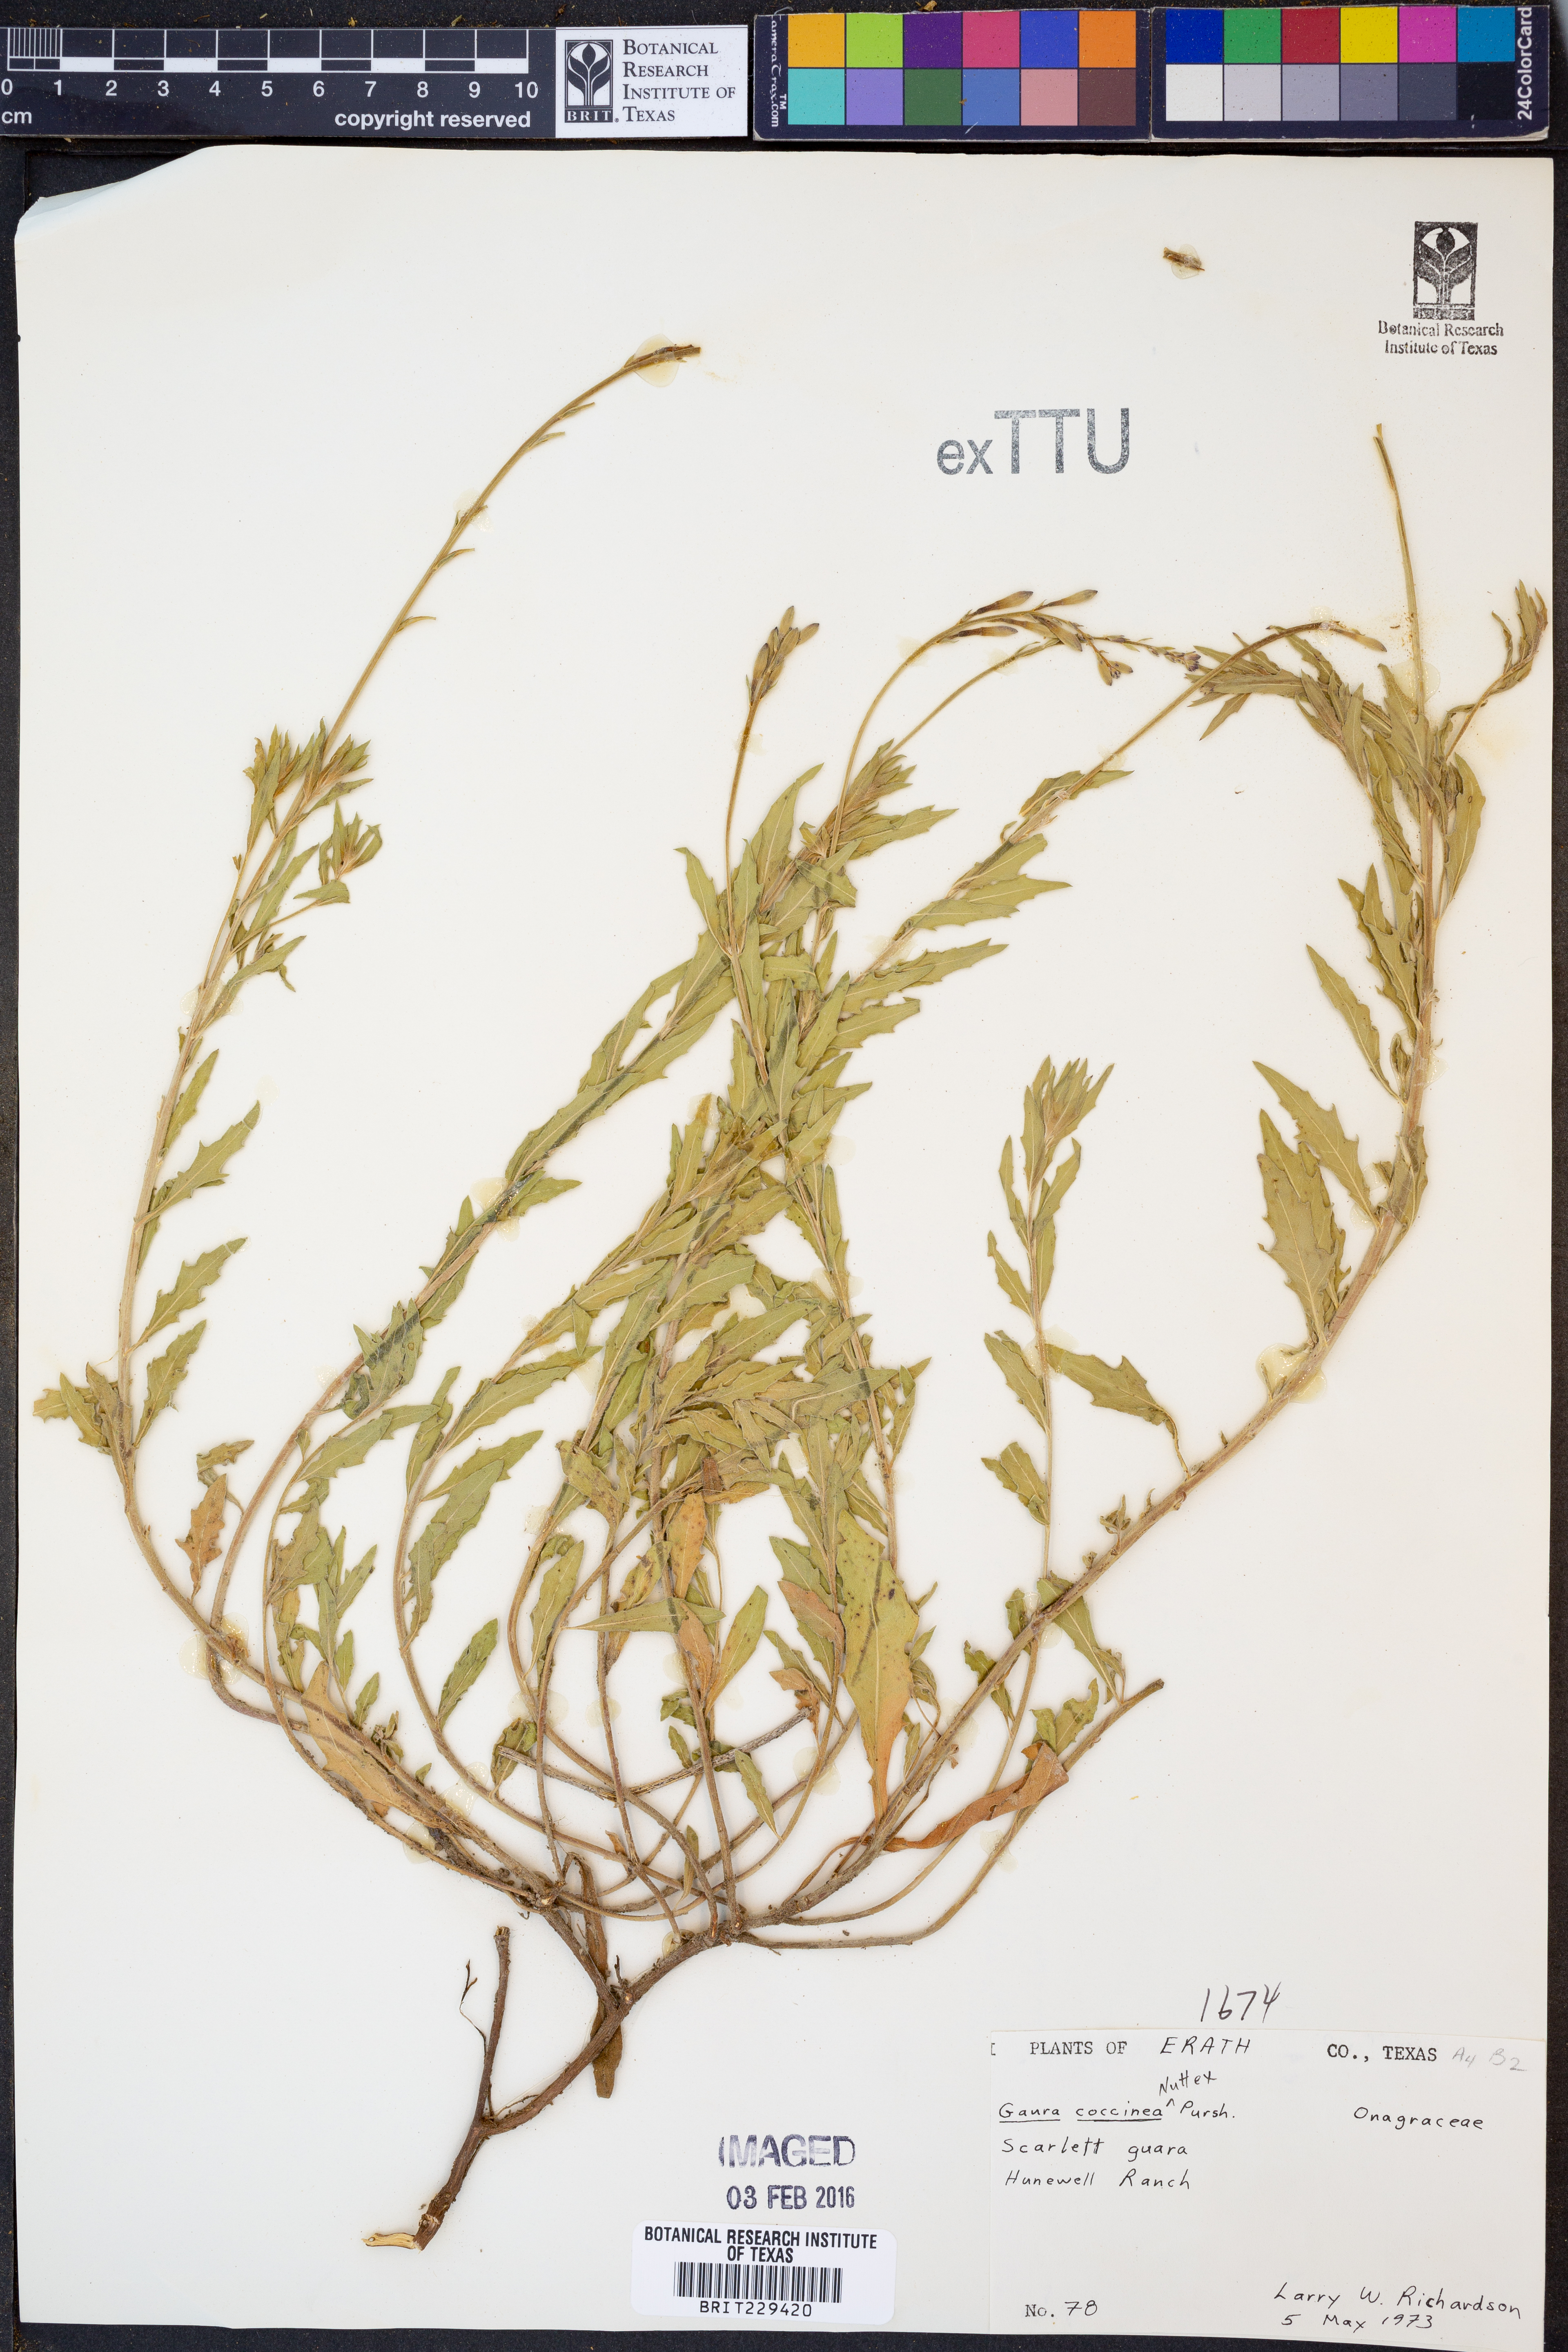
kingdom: Plantae
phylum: Tracheophyta
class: Magnoliopsida
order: Myrtales
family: Onagraceae
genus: Oenothera
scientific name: Oenothera suffrutescens
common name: Scarlet beeblossom
